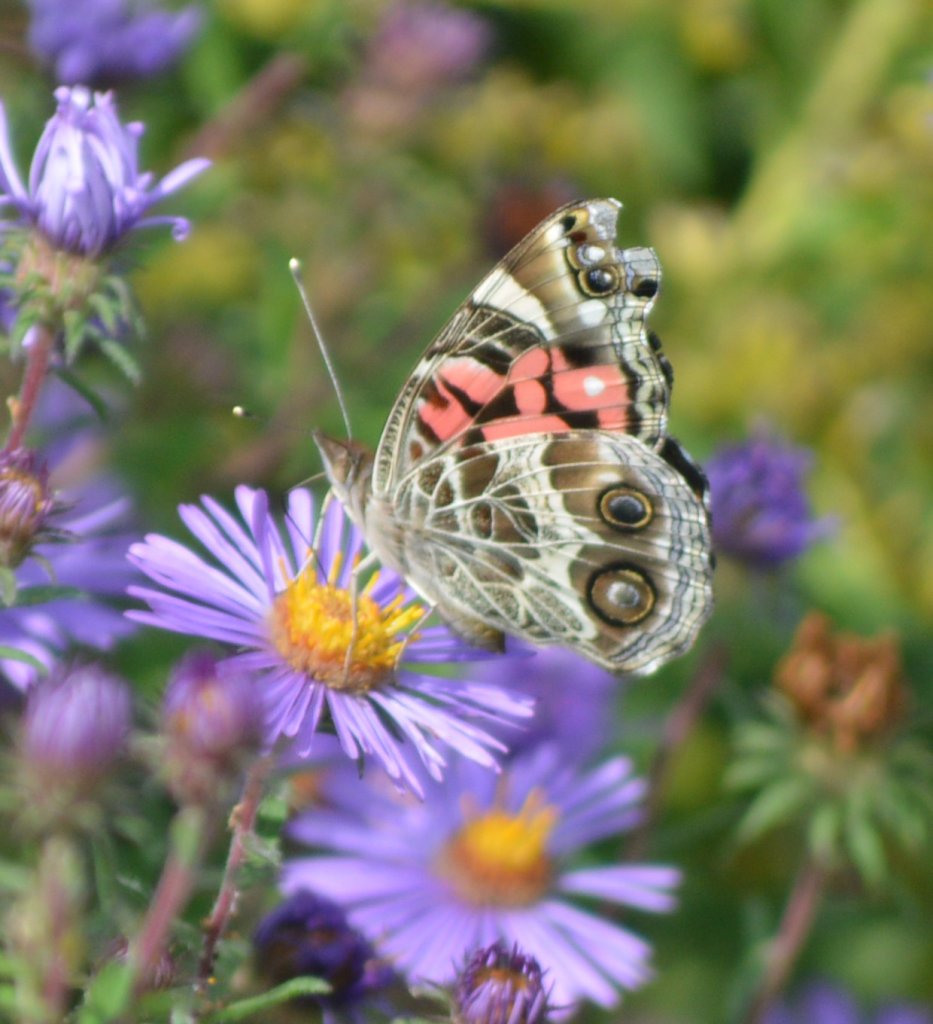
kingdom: Animalia
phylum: Arthropoda
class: Insecta
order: Lepidoptera
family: Nymphalidae
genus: Vanessa
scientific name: Vanessa virginiensis
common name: American Lady
